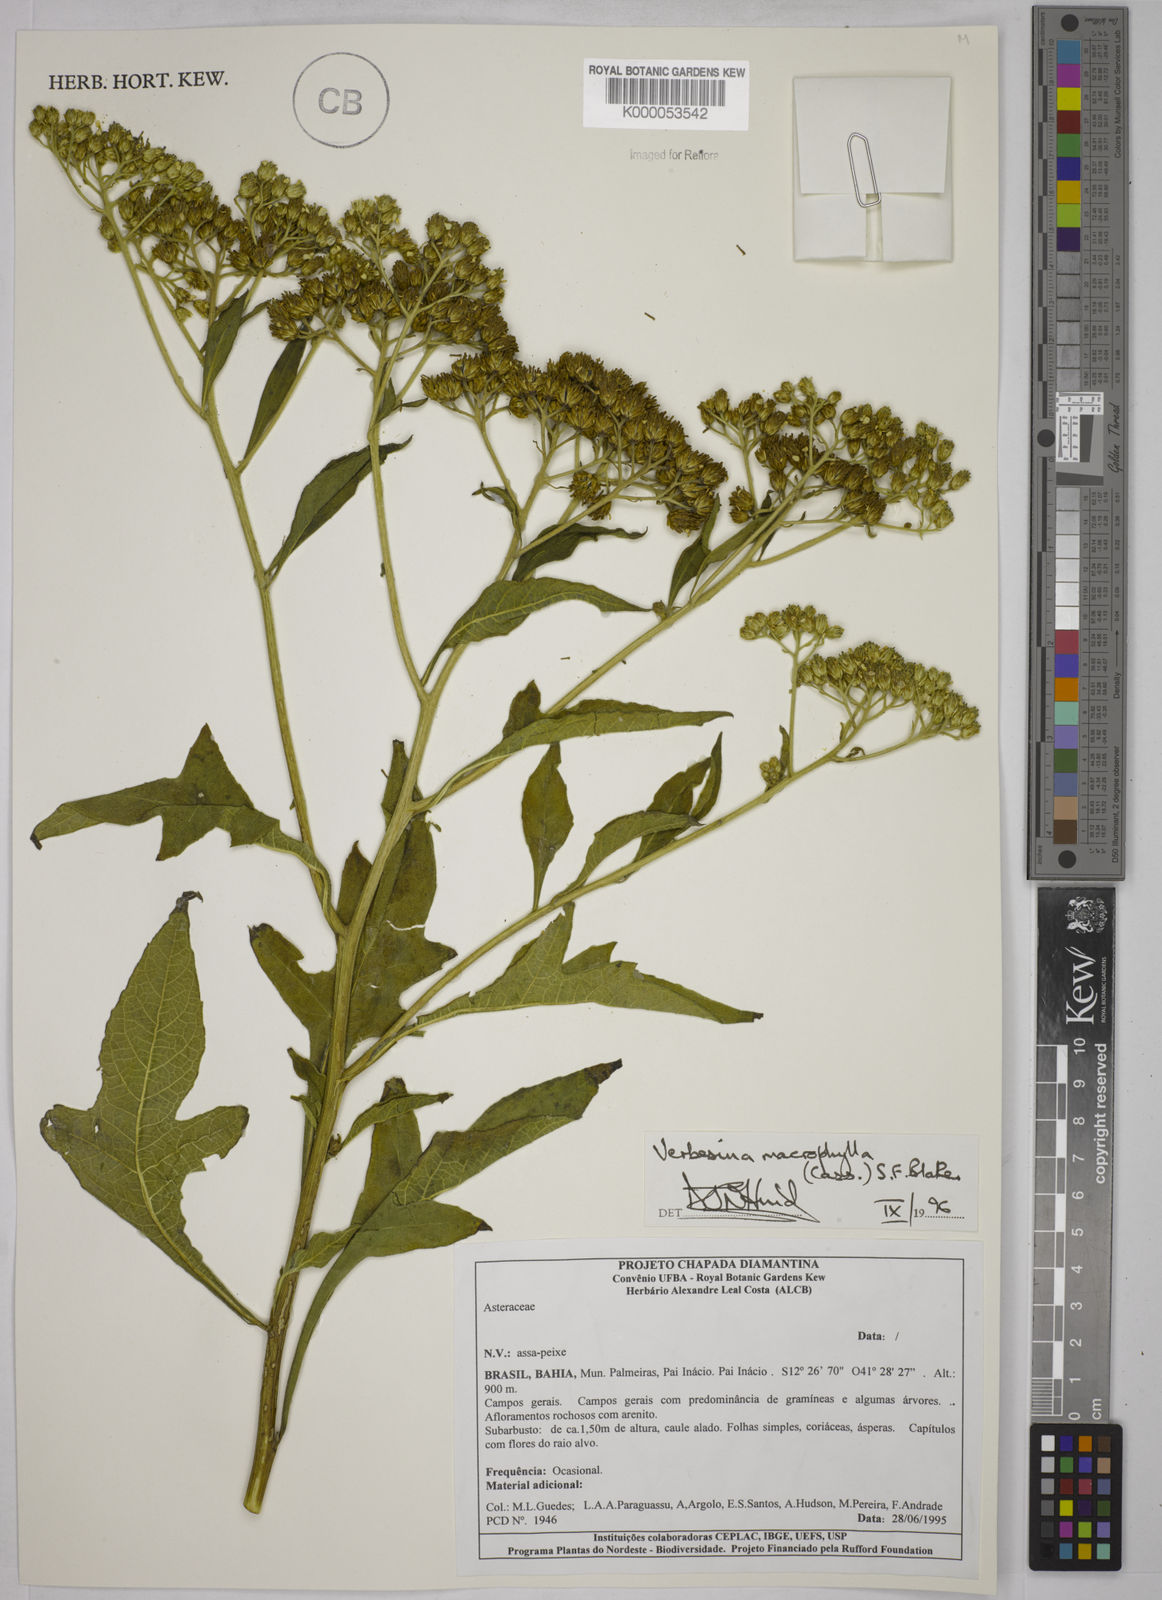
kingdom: Plantae
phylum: Tracheophyta
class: Magnoliopsida
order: Asterales
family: Asteraceae
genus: Verbesina
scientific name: Verbesina macrophylla
